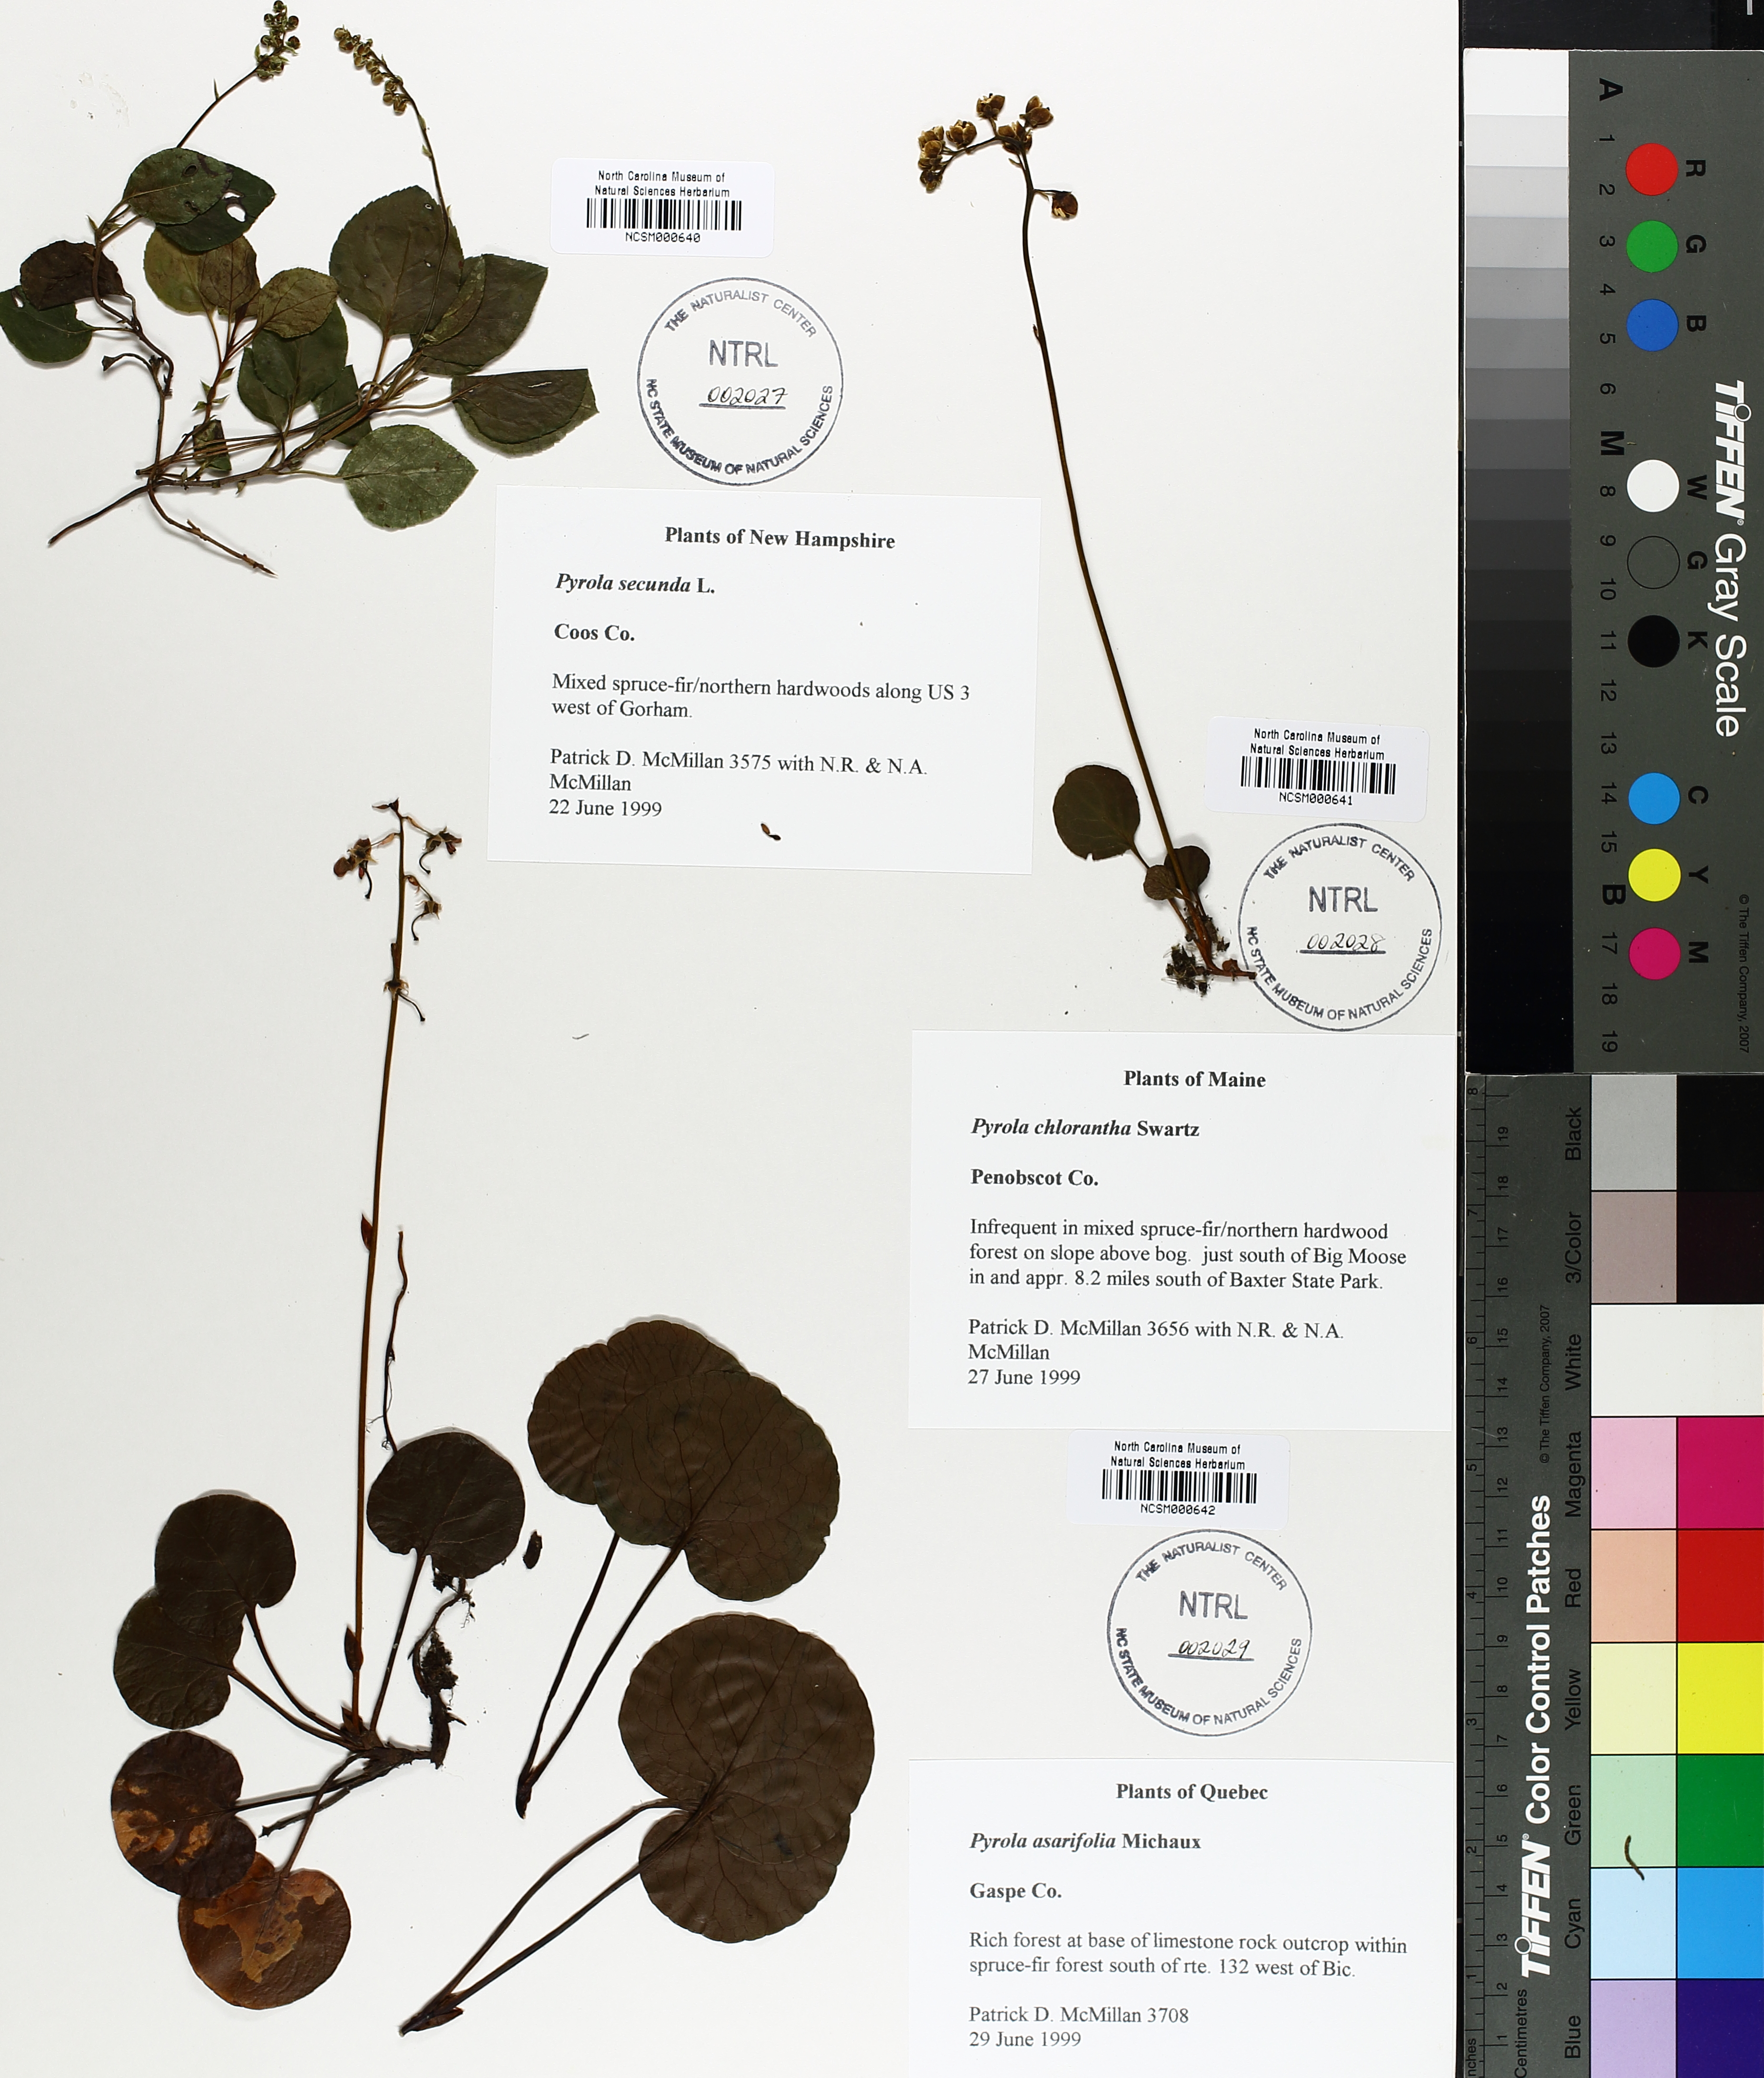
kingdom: Plantae
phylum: Tracheophyta
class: Magnoliopsida
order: Ericales
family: Ericaceae
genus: Pyrola
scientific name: Pyrola asarifolia
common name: Bog wintergreen
